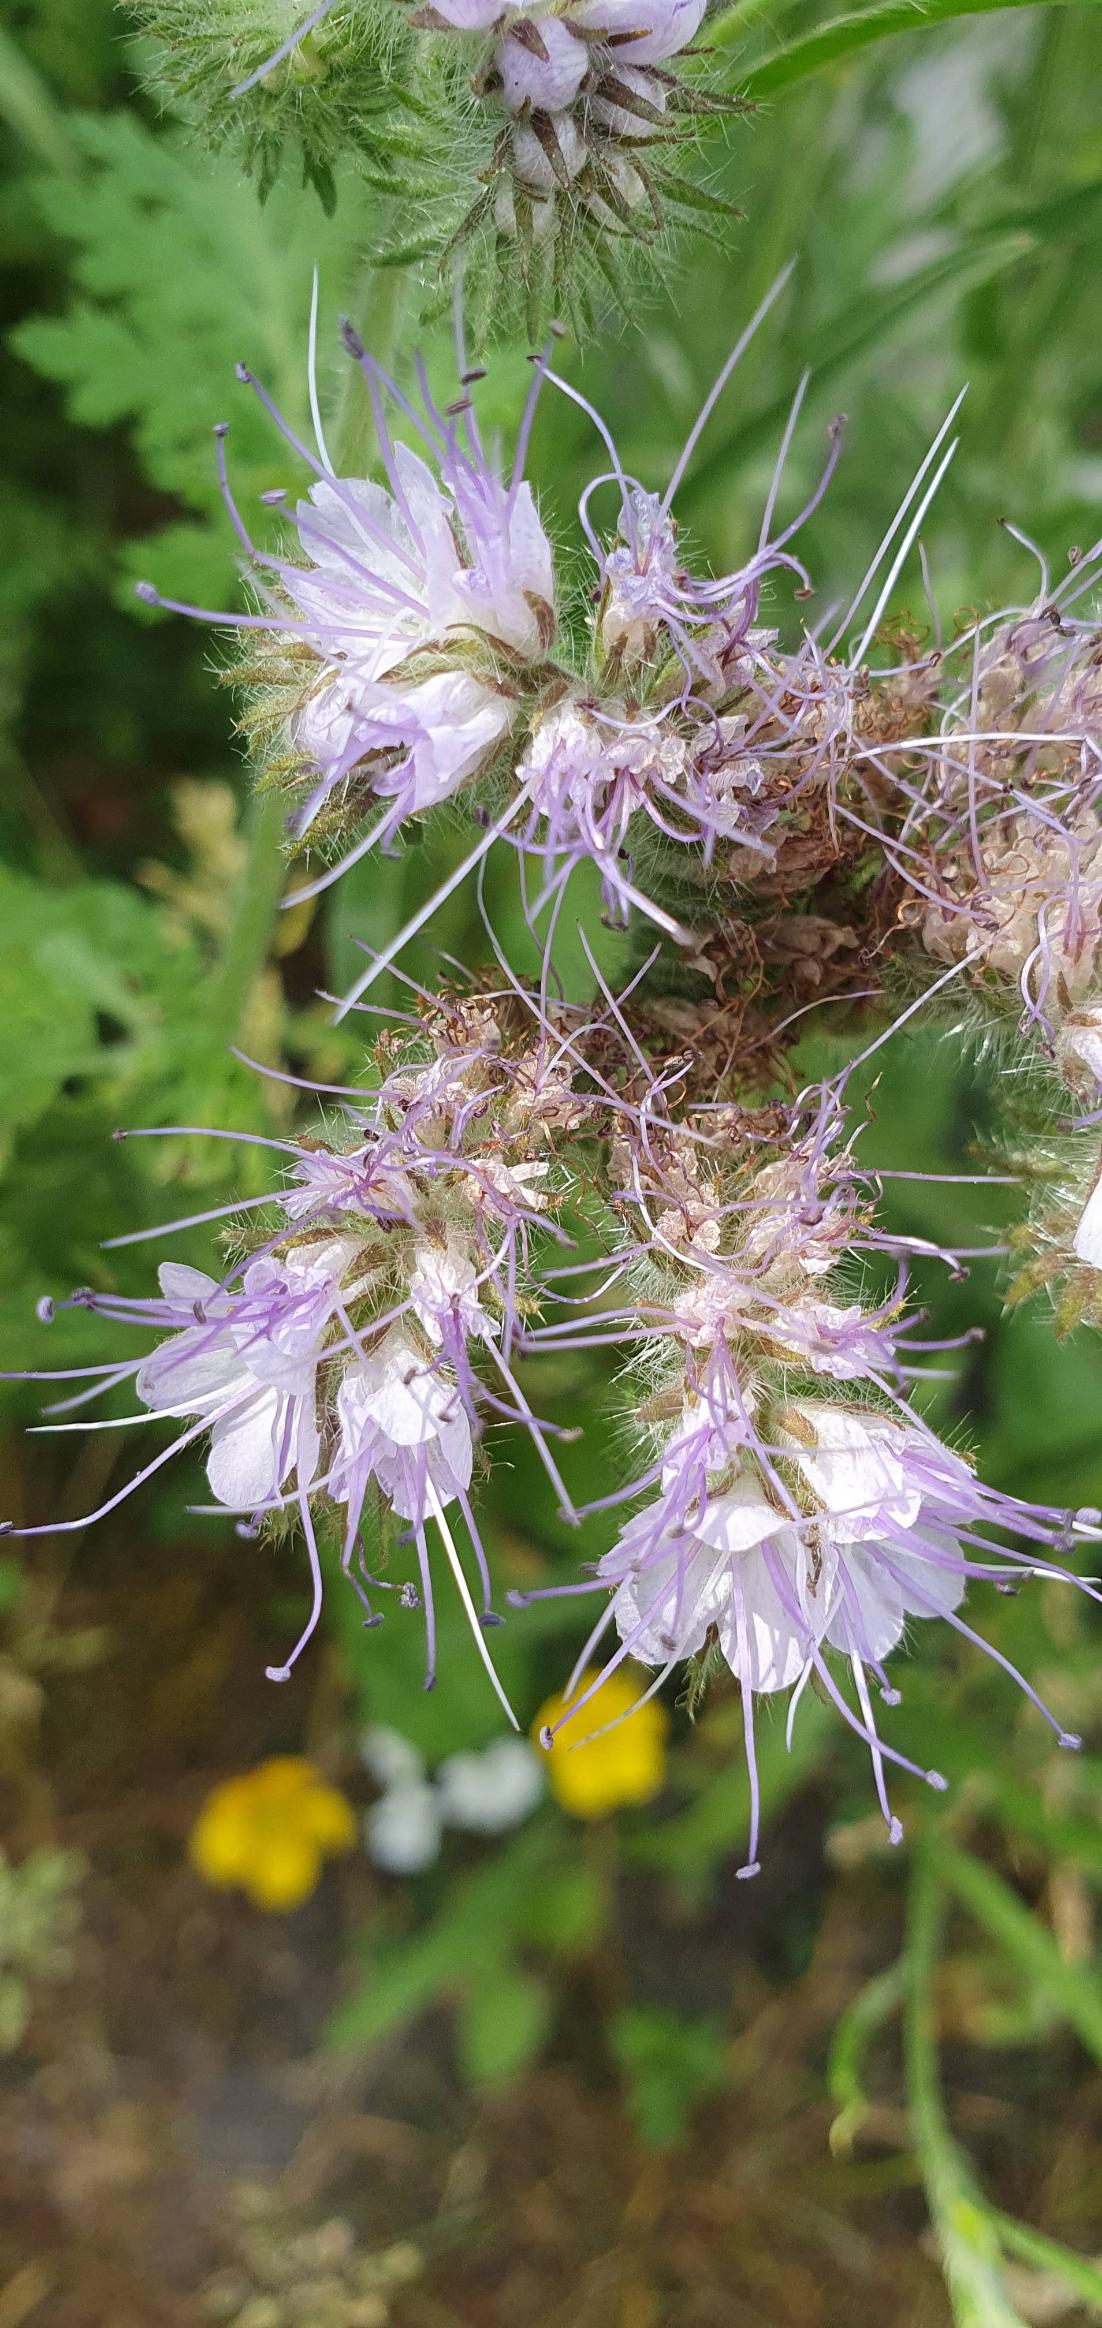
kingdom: Plantae
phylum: Tracheophyta
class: Magnoliopsida
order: Boraginales
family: Hydrophyllaceae
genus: Phacelia
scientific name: Phacelia tanacetifolia
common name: Honningurt
